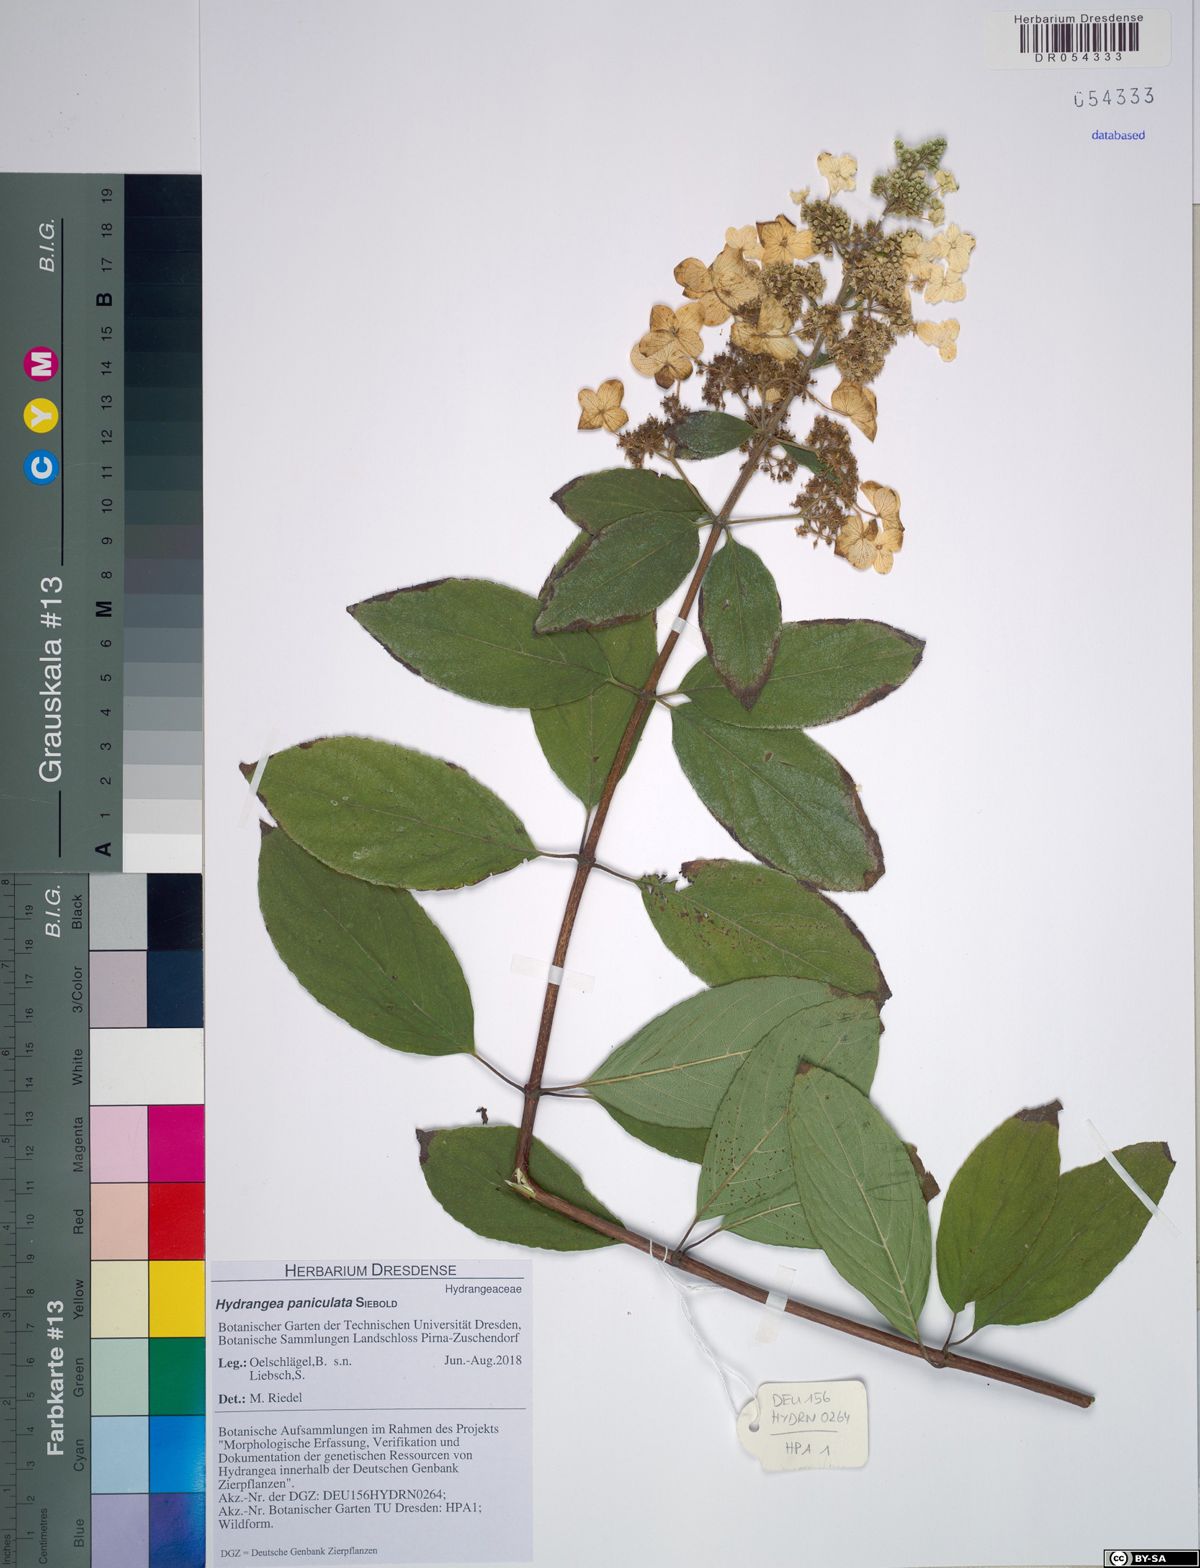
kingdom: Plantae
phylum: Tracheophyta
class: Magnoliopsida
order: Cornales
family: Hydrangeaceae
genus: Hydrangea
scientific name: Hydrangea paniculata
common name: Panicled hydrangea
